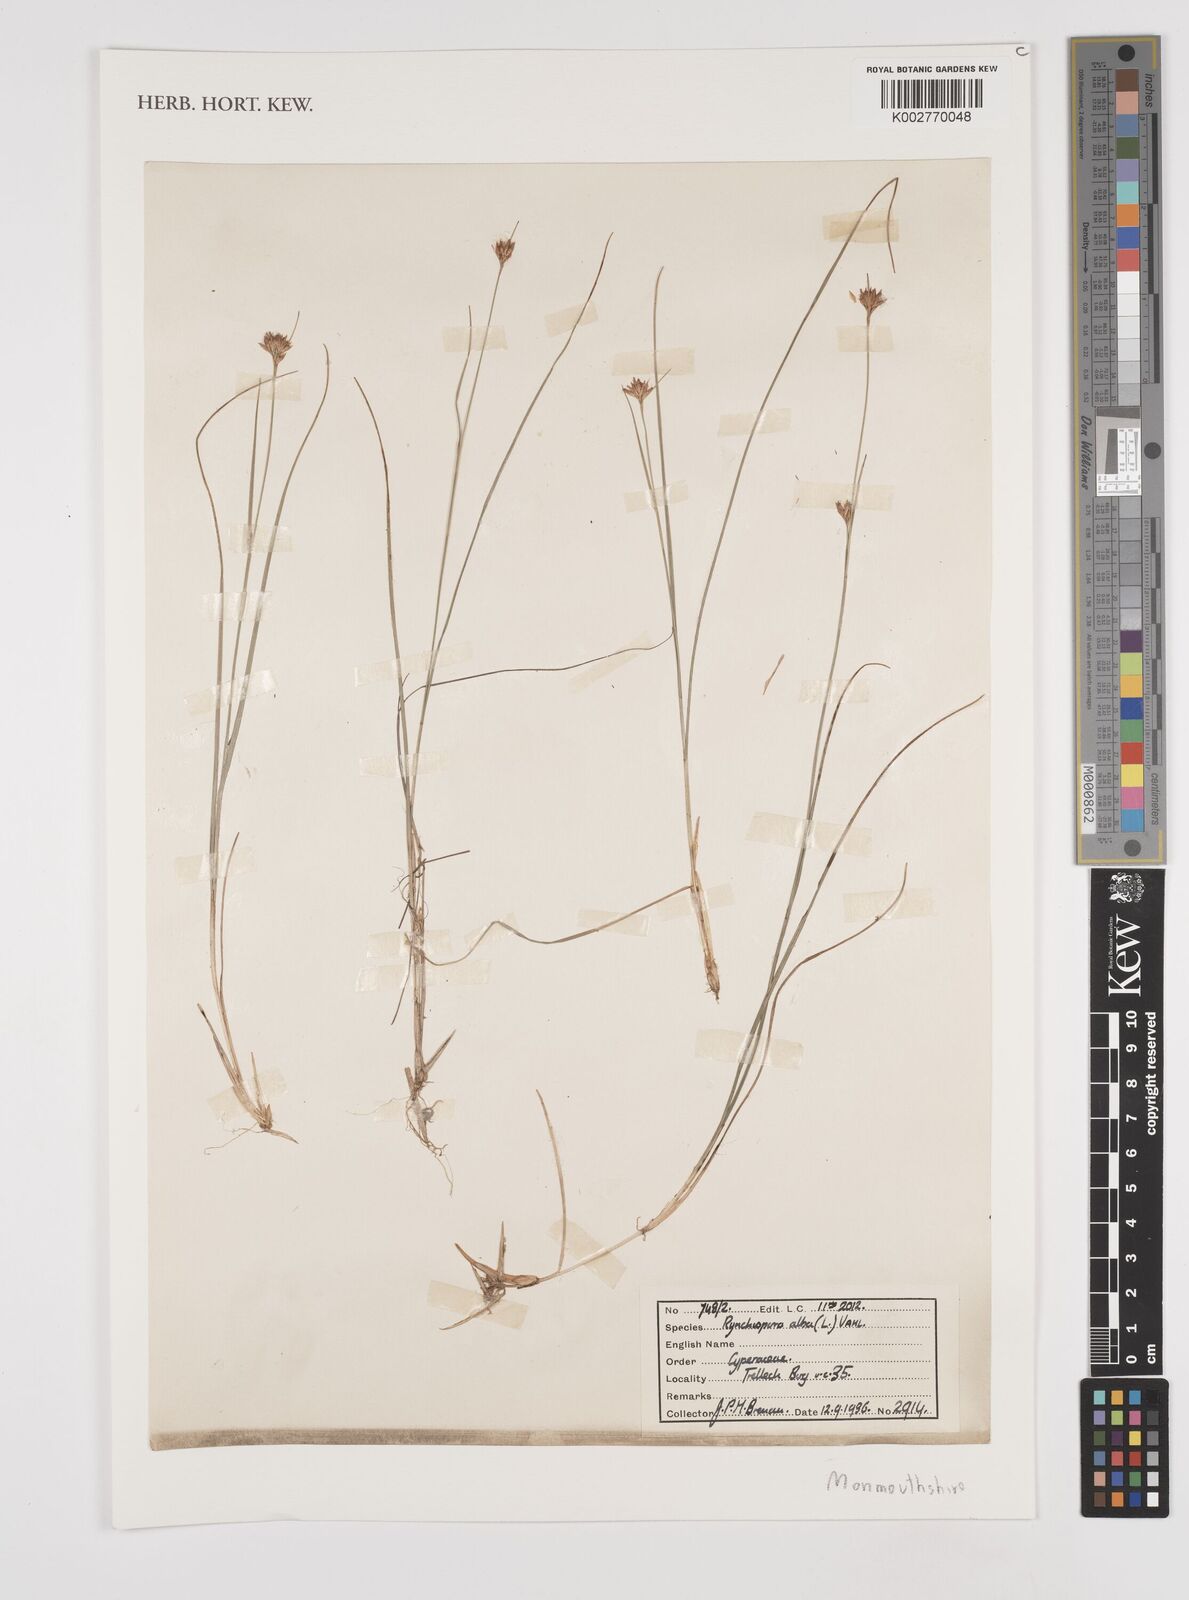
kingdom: Plantae
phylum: Tracheophyta
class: Liliopsida
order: Poales
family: Cyperaceae
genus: Rhynchospora
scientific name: Rhynchospora alba
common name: White beak-sedge
